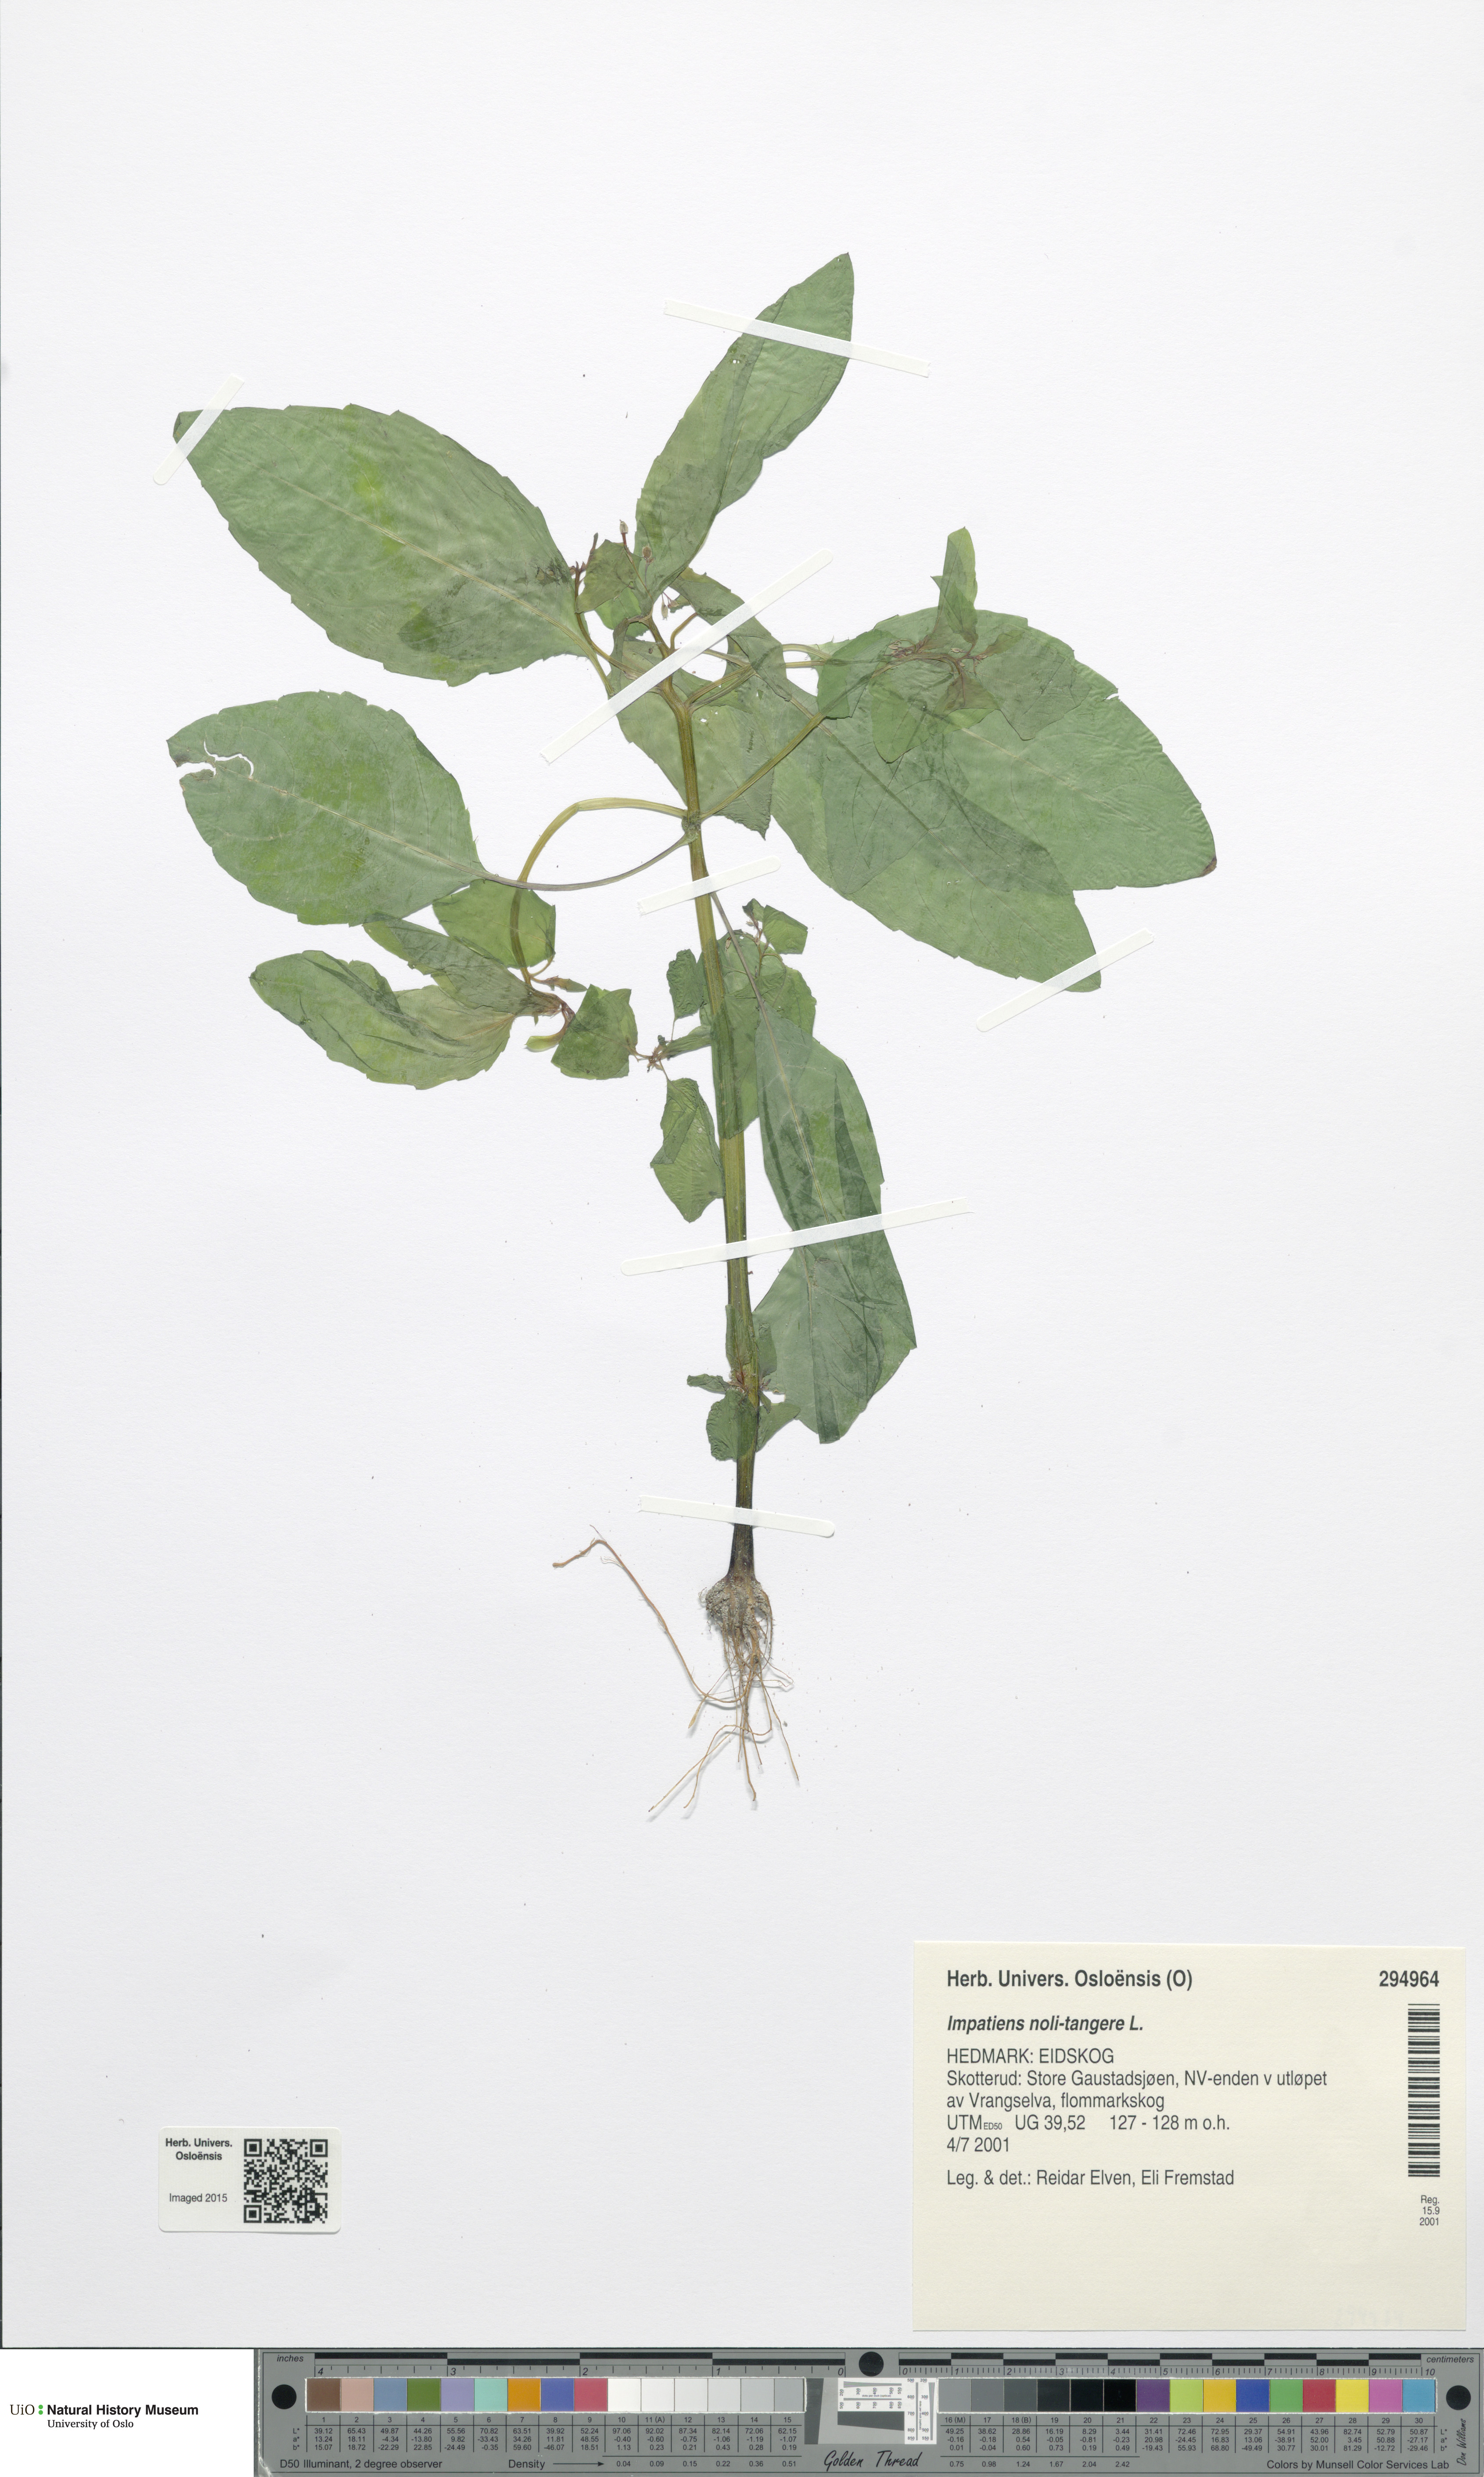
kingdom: Plantae
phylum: Tracheophyta
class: Magnoliopsida
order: Ericales
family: Balsaminaceae
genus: Impatiens
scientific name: Impatiens noli-tangere
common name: Touch-me-not balsam
